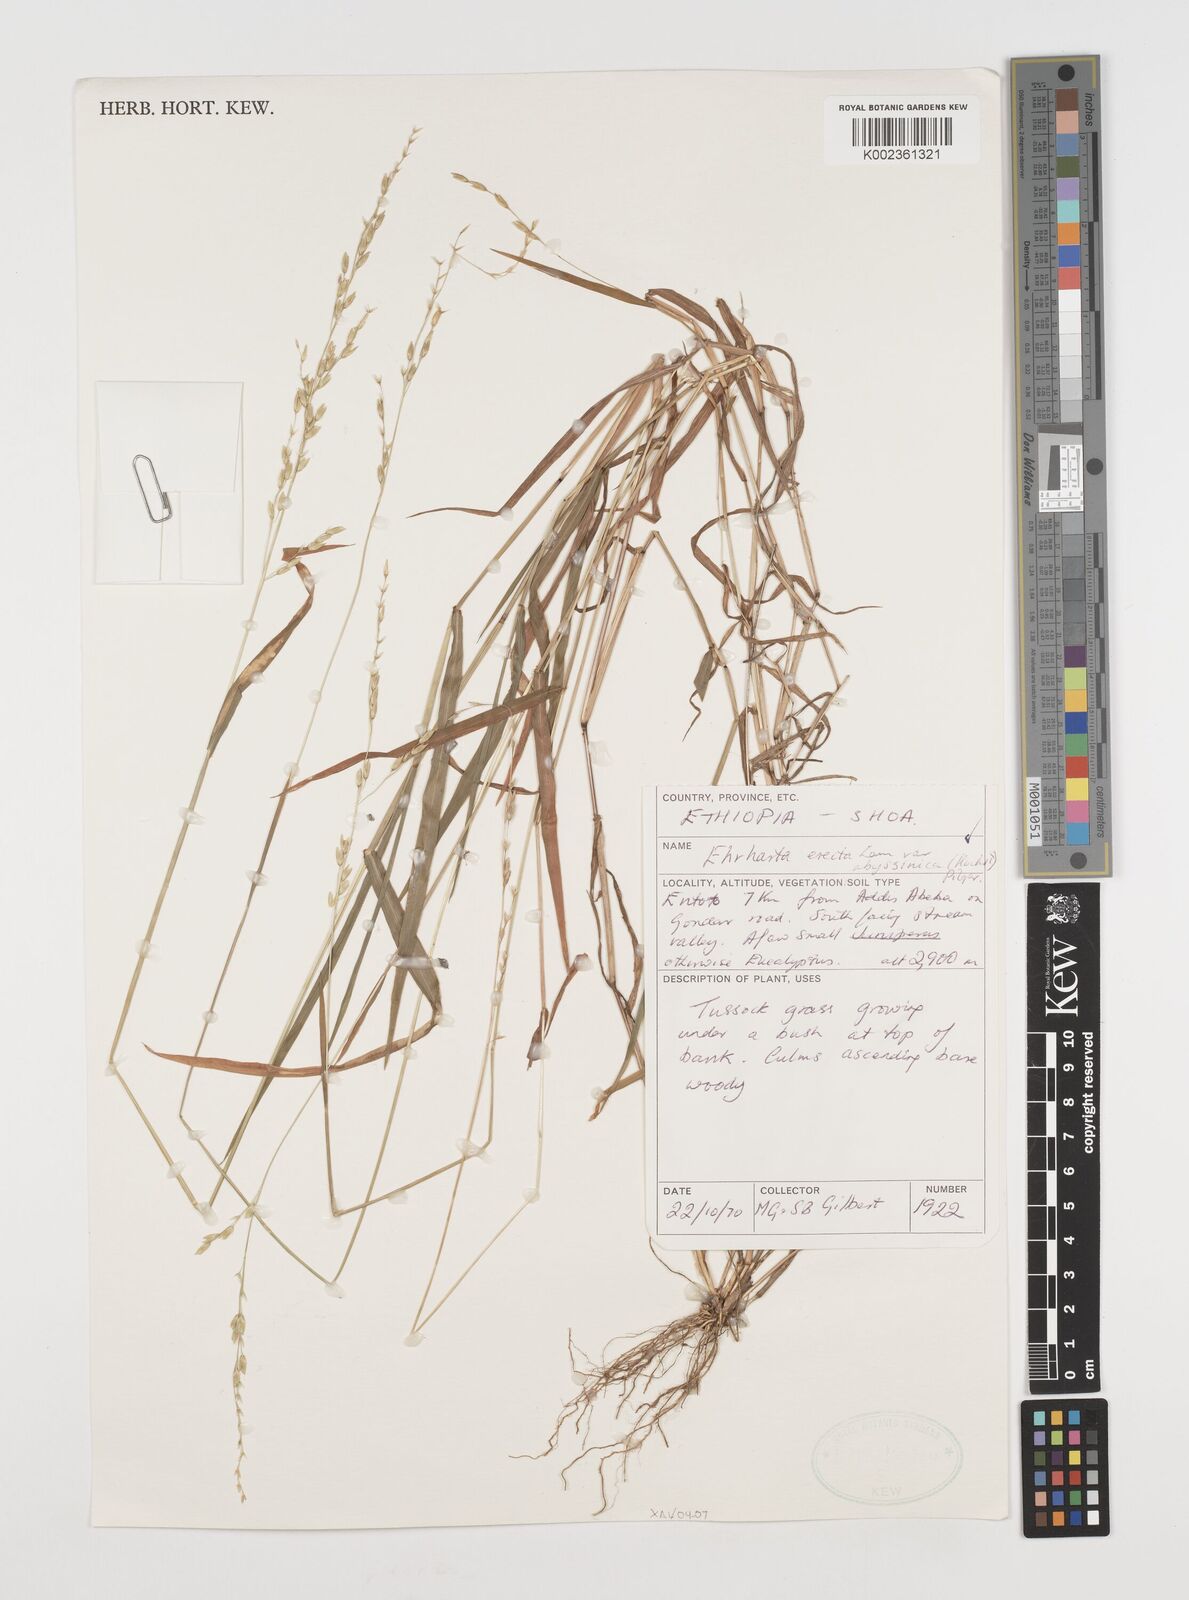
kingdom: Plantae
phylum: Tracheophyta
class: Liliopsida
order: Poales
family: Poaceae
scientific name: Poaceae
